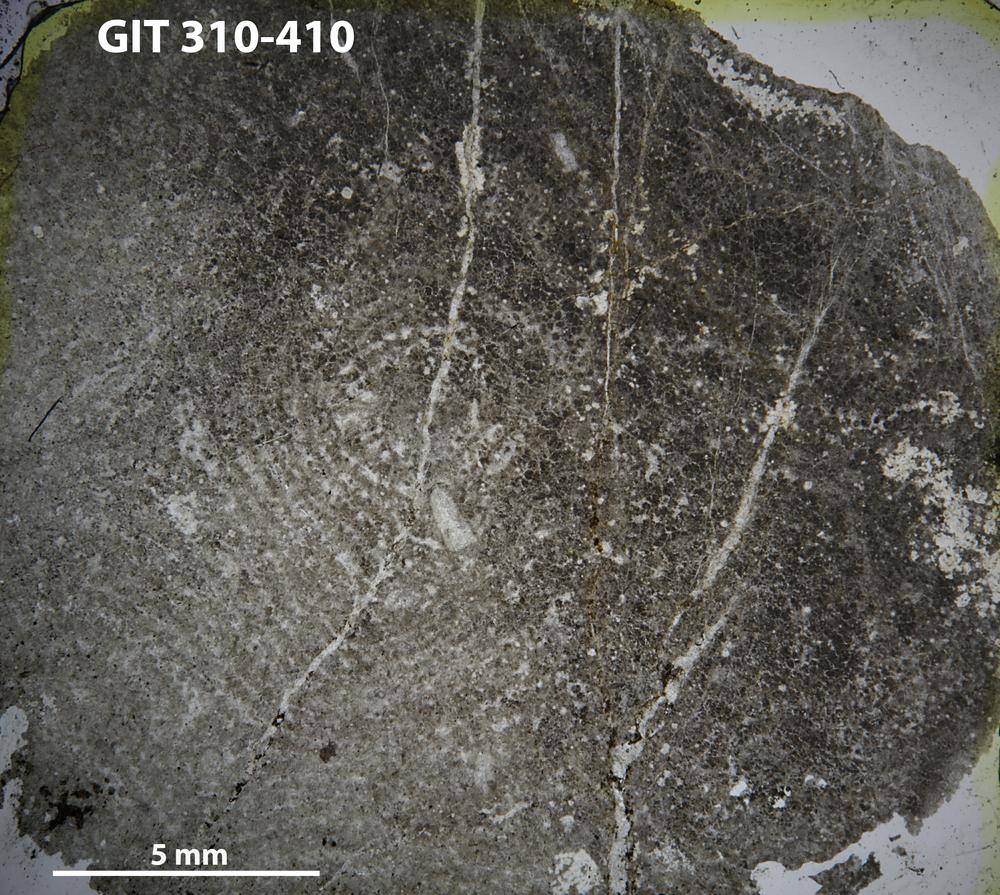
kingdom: Animalia
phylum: Porifera
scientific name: Porifera
